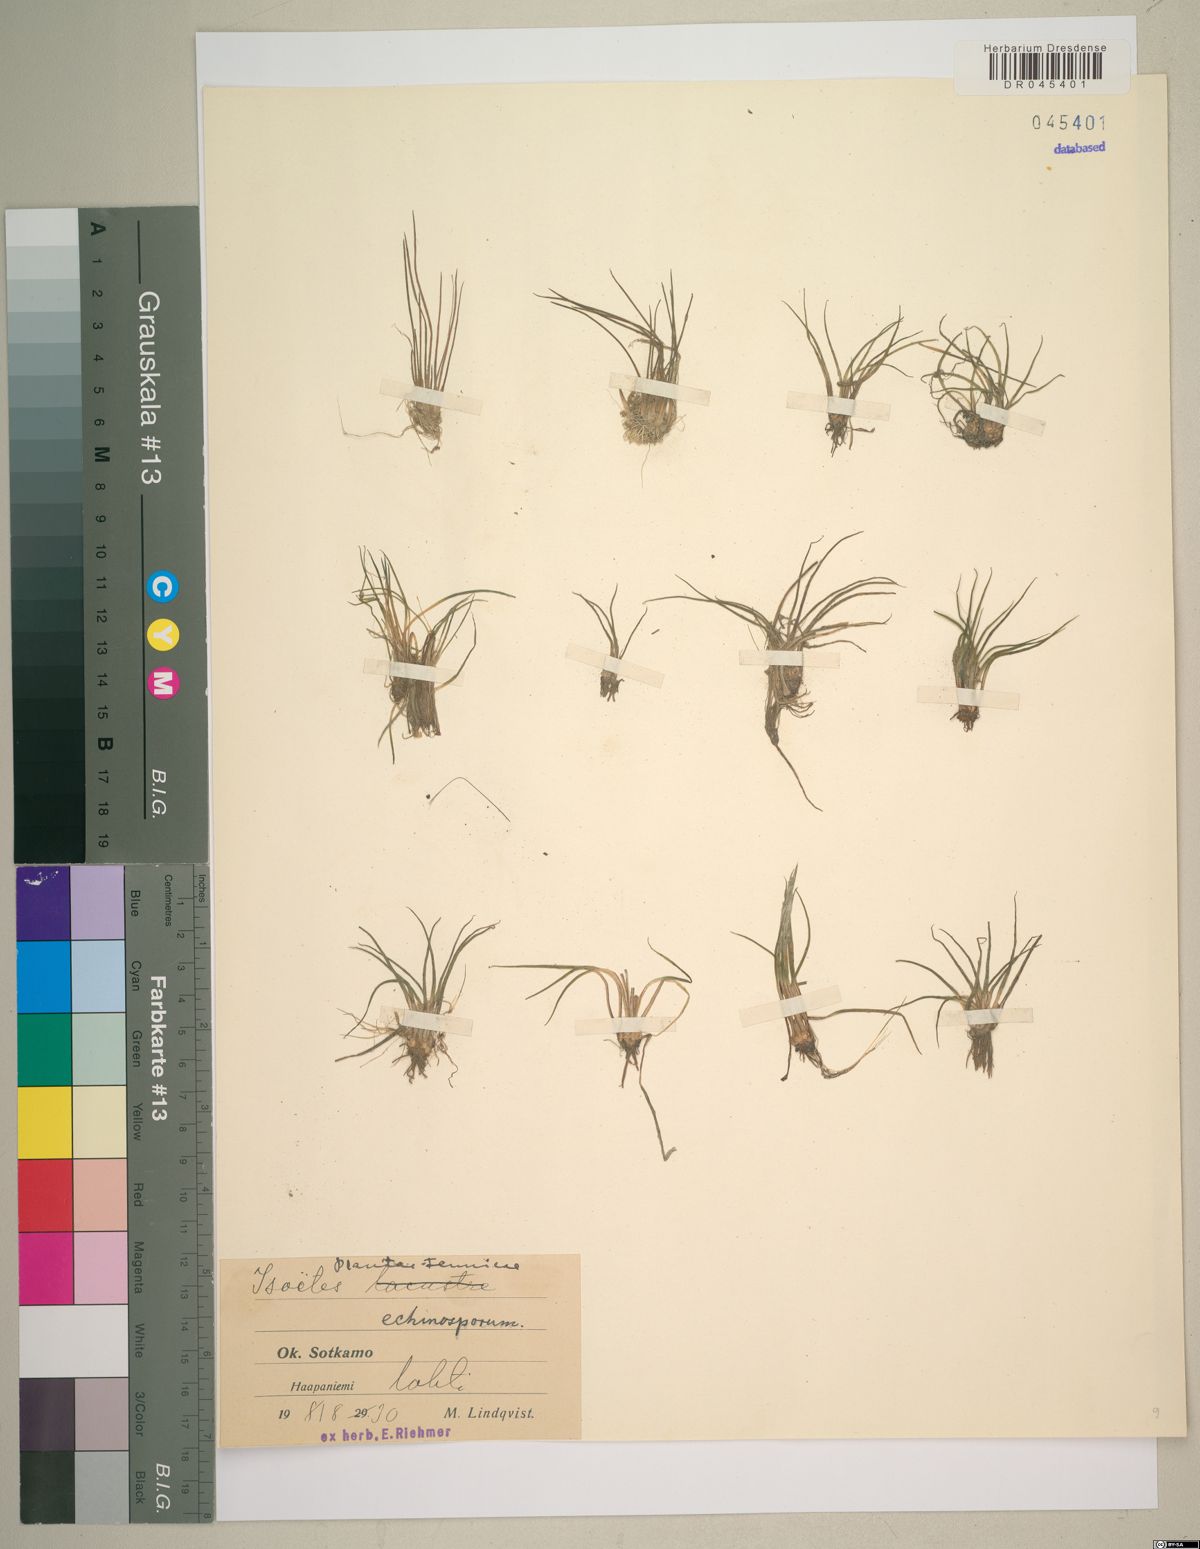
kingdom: Plantae
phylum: Tracheophyta
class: Lycopodiopsida
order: Isoetales
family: Isoetaceae
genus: Isoetes
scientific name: Isoetes echinospora
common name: Spring quillwort
